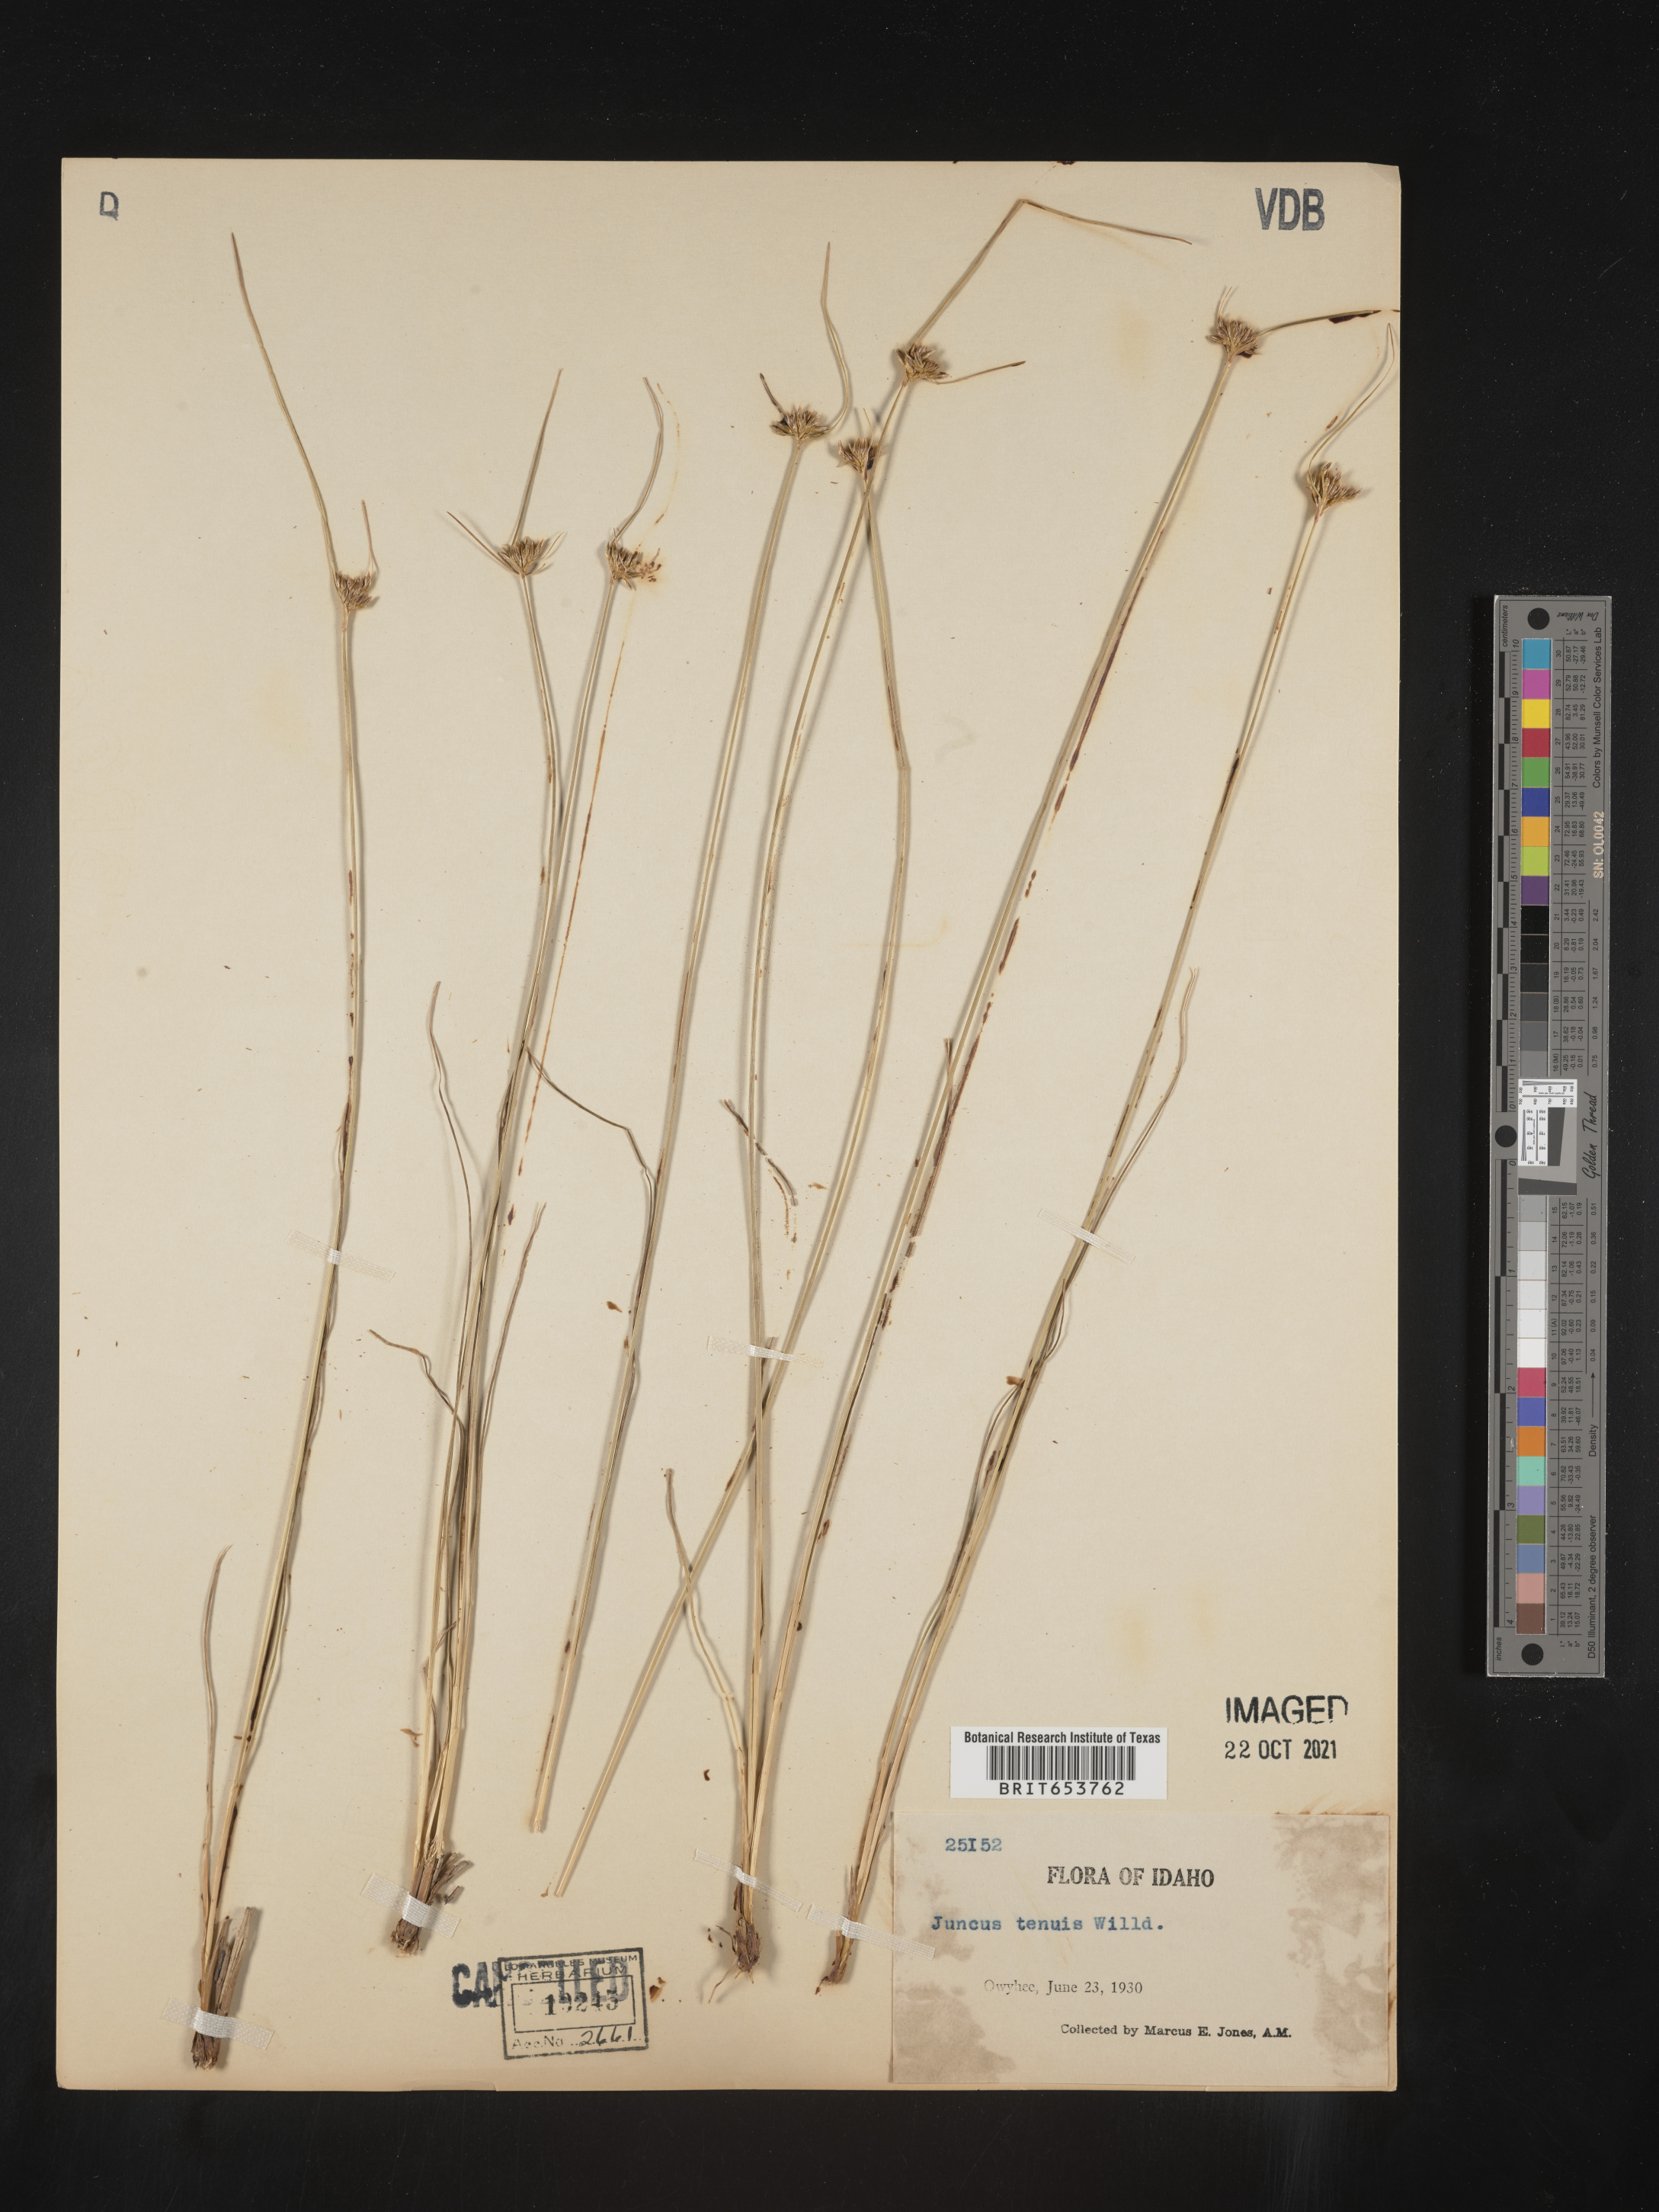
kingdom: Plantae
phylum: Tracheophyta
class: Liliopsida
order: Poales
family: Juncaceae
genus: Juncus
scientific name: Juncus tenuis
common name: Slender rush
